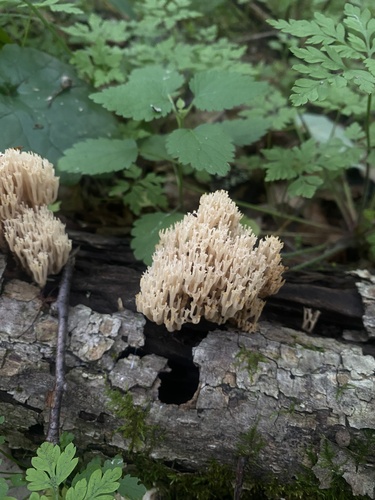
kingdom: Fungi
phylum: Basidiomycota
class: Agaricomycetes
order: Russulales
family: Auriscalpiaceae
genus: Artomyces
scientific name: Artomyces pyxidatus
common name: Crown-tipped coral fungus
